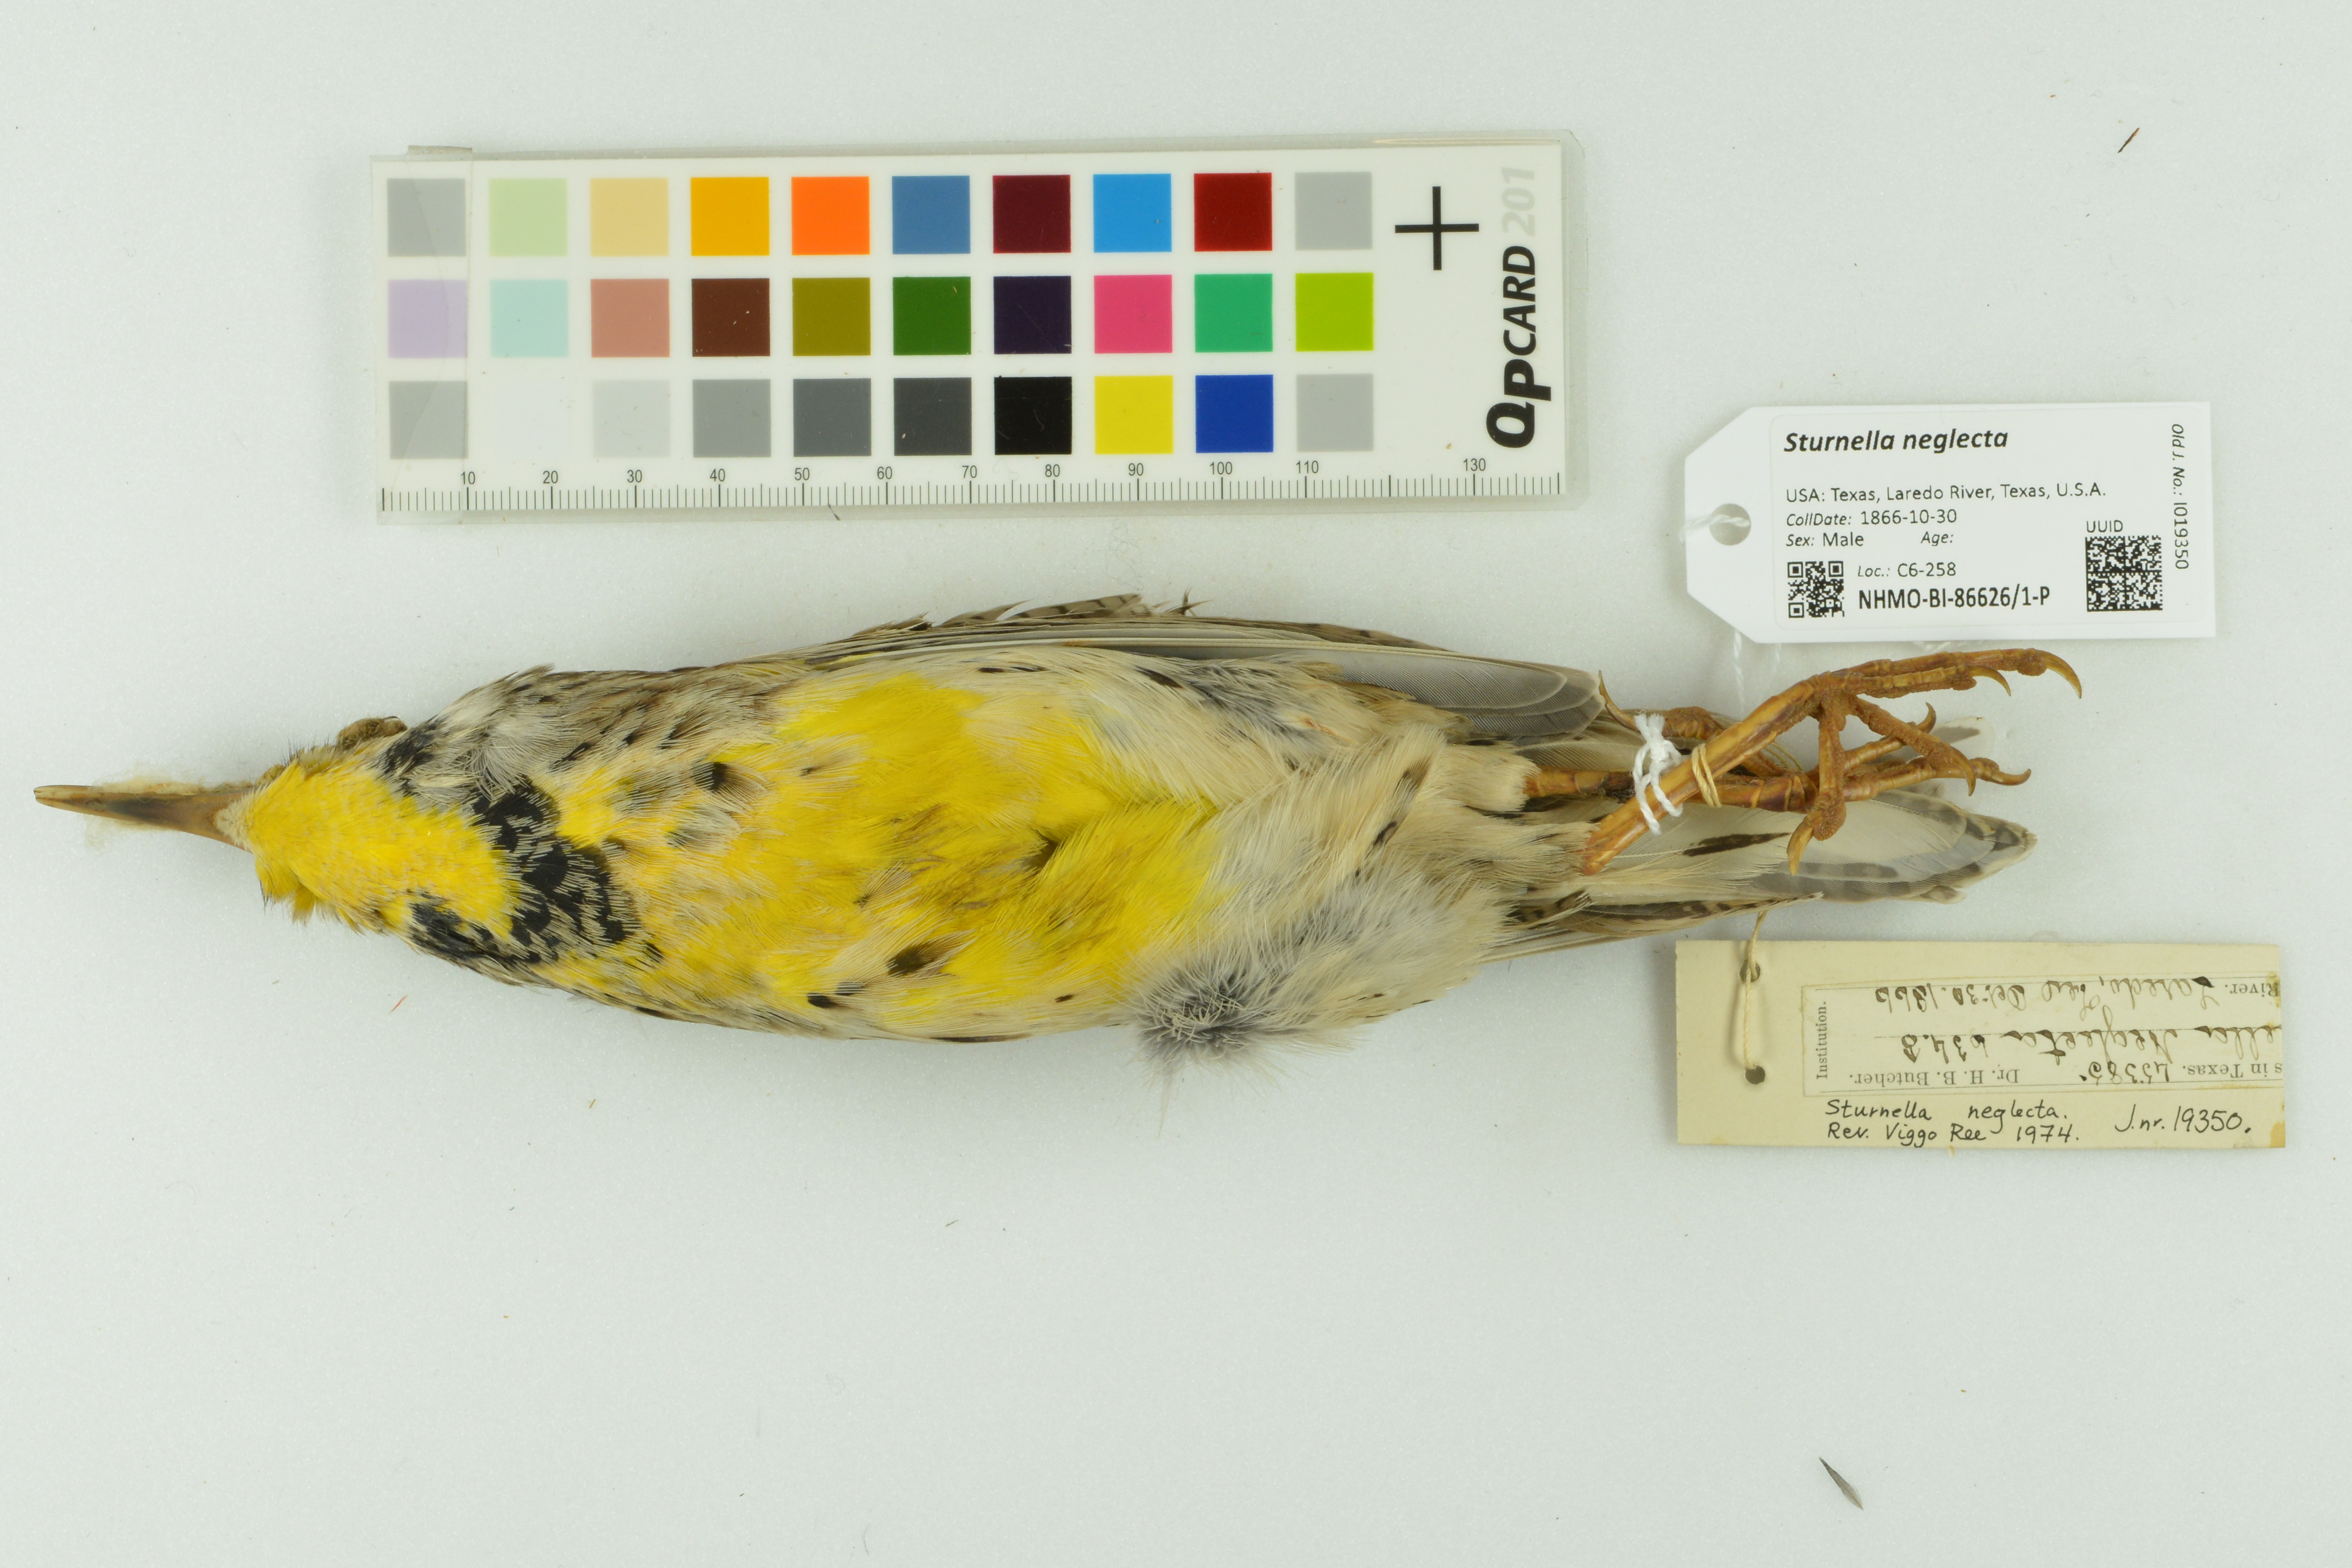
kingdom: Animalia
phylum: Chordata
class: Aves
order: Passeriformes
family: Icteridae
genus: Sturnella
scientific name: Sturnella neglecta
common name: Western meadowlark
